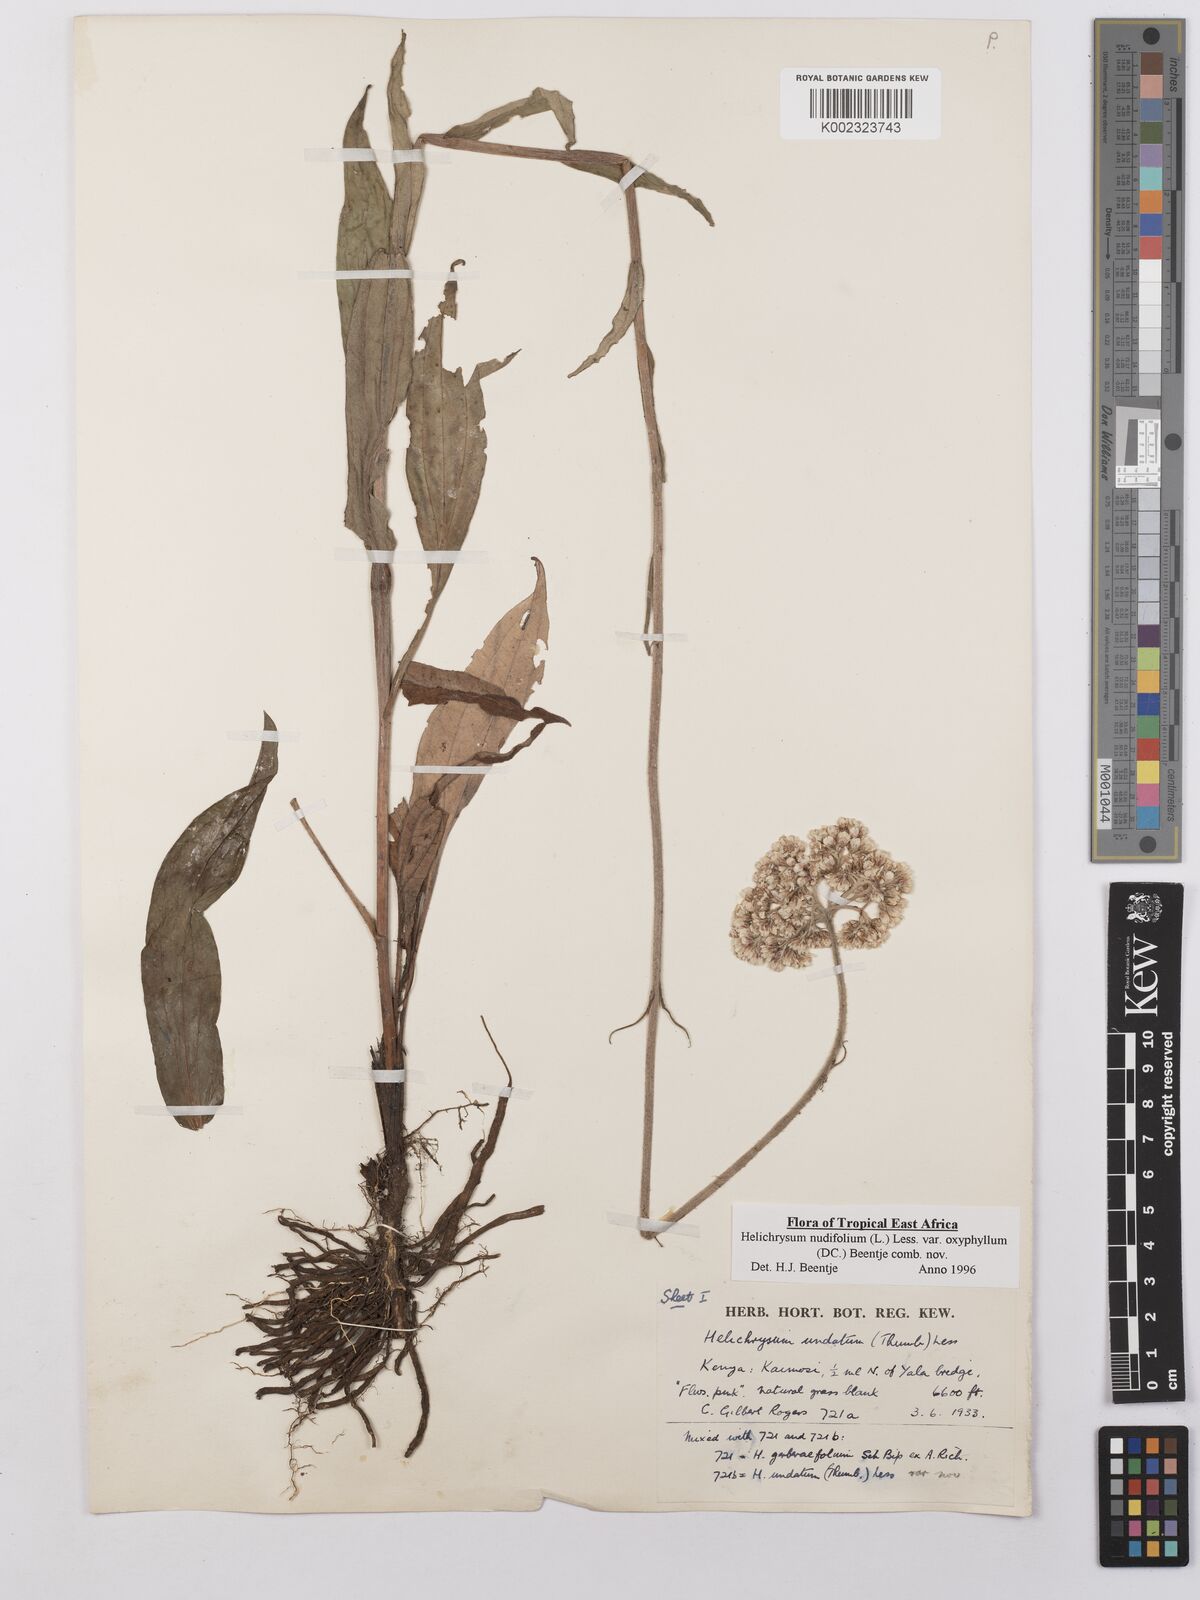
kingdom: Plantae
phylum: Tracheophyta
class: Magnoliopsida
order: Asterales
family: Asteraceae
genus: Helichrysum
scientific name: Helichrysum nudifolium
